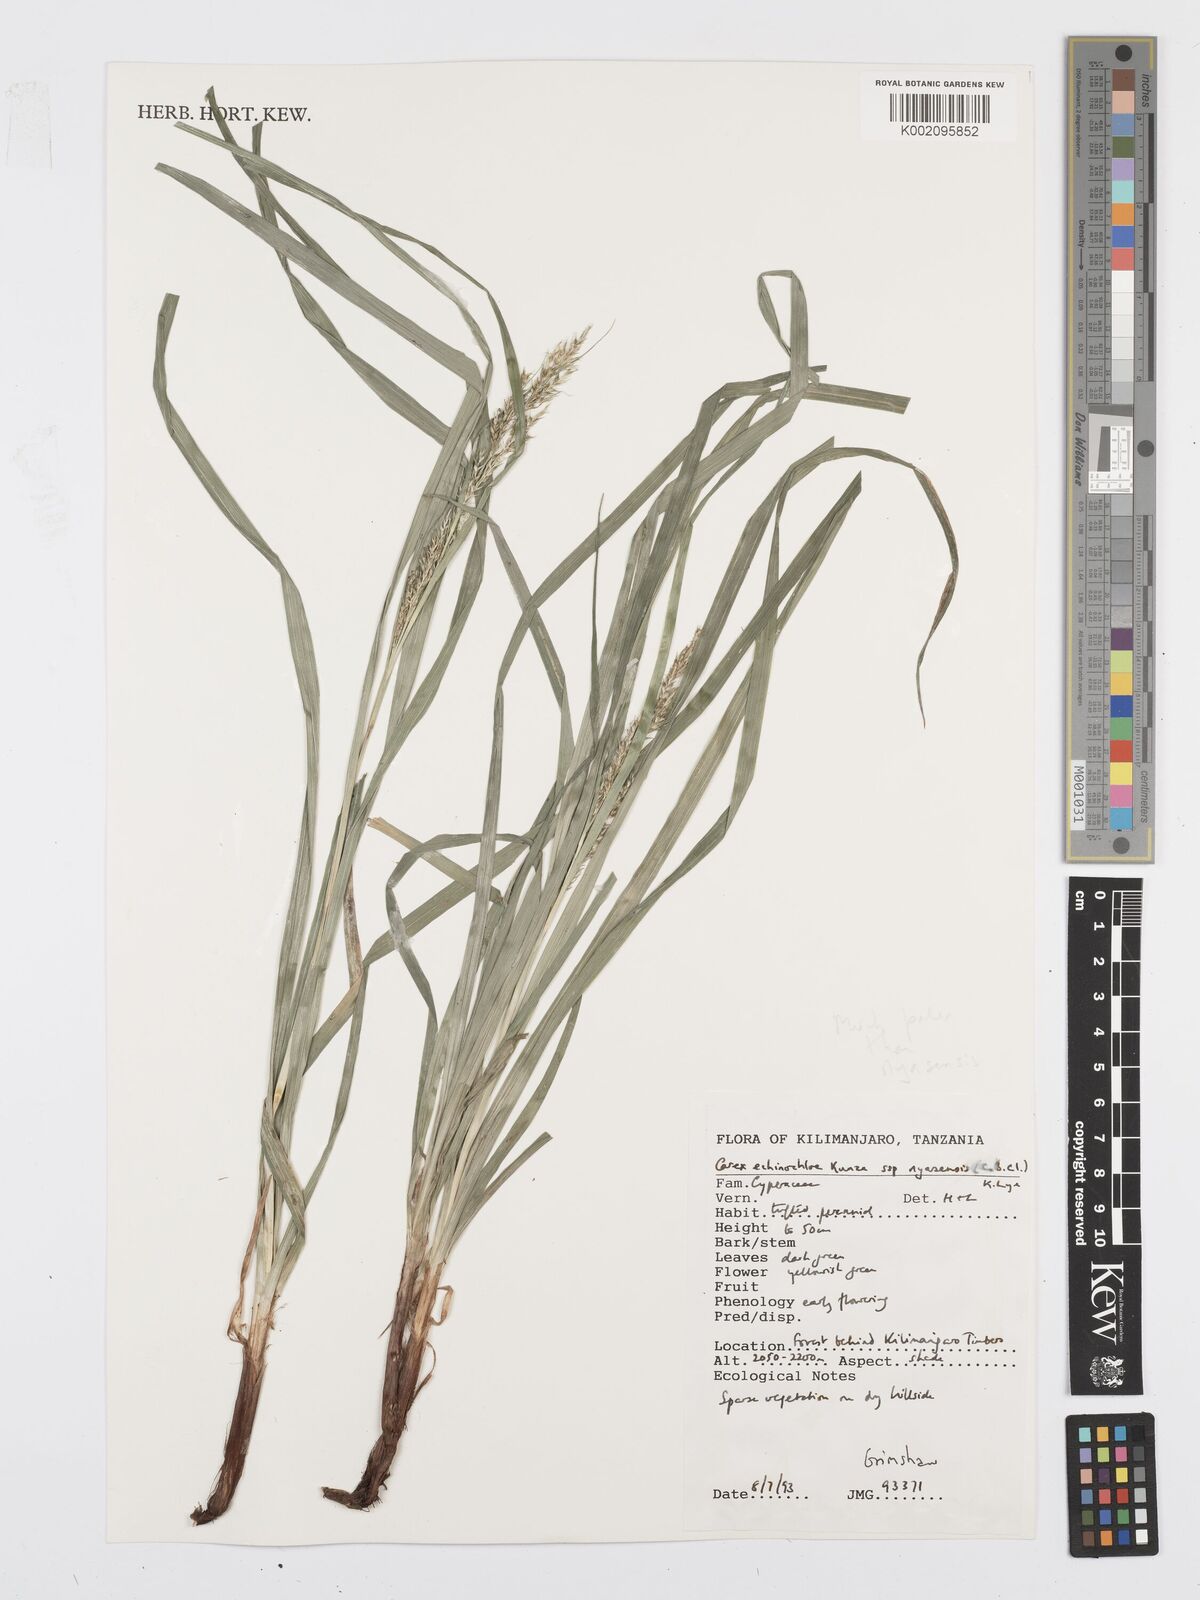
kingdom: Plantae
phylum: Tracheophyta
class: Liliopsida
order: Poales
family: Cyperaceae
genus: Carex
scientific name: Carex spicatopaniculata
